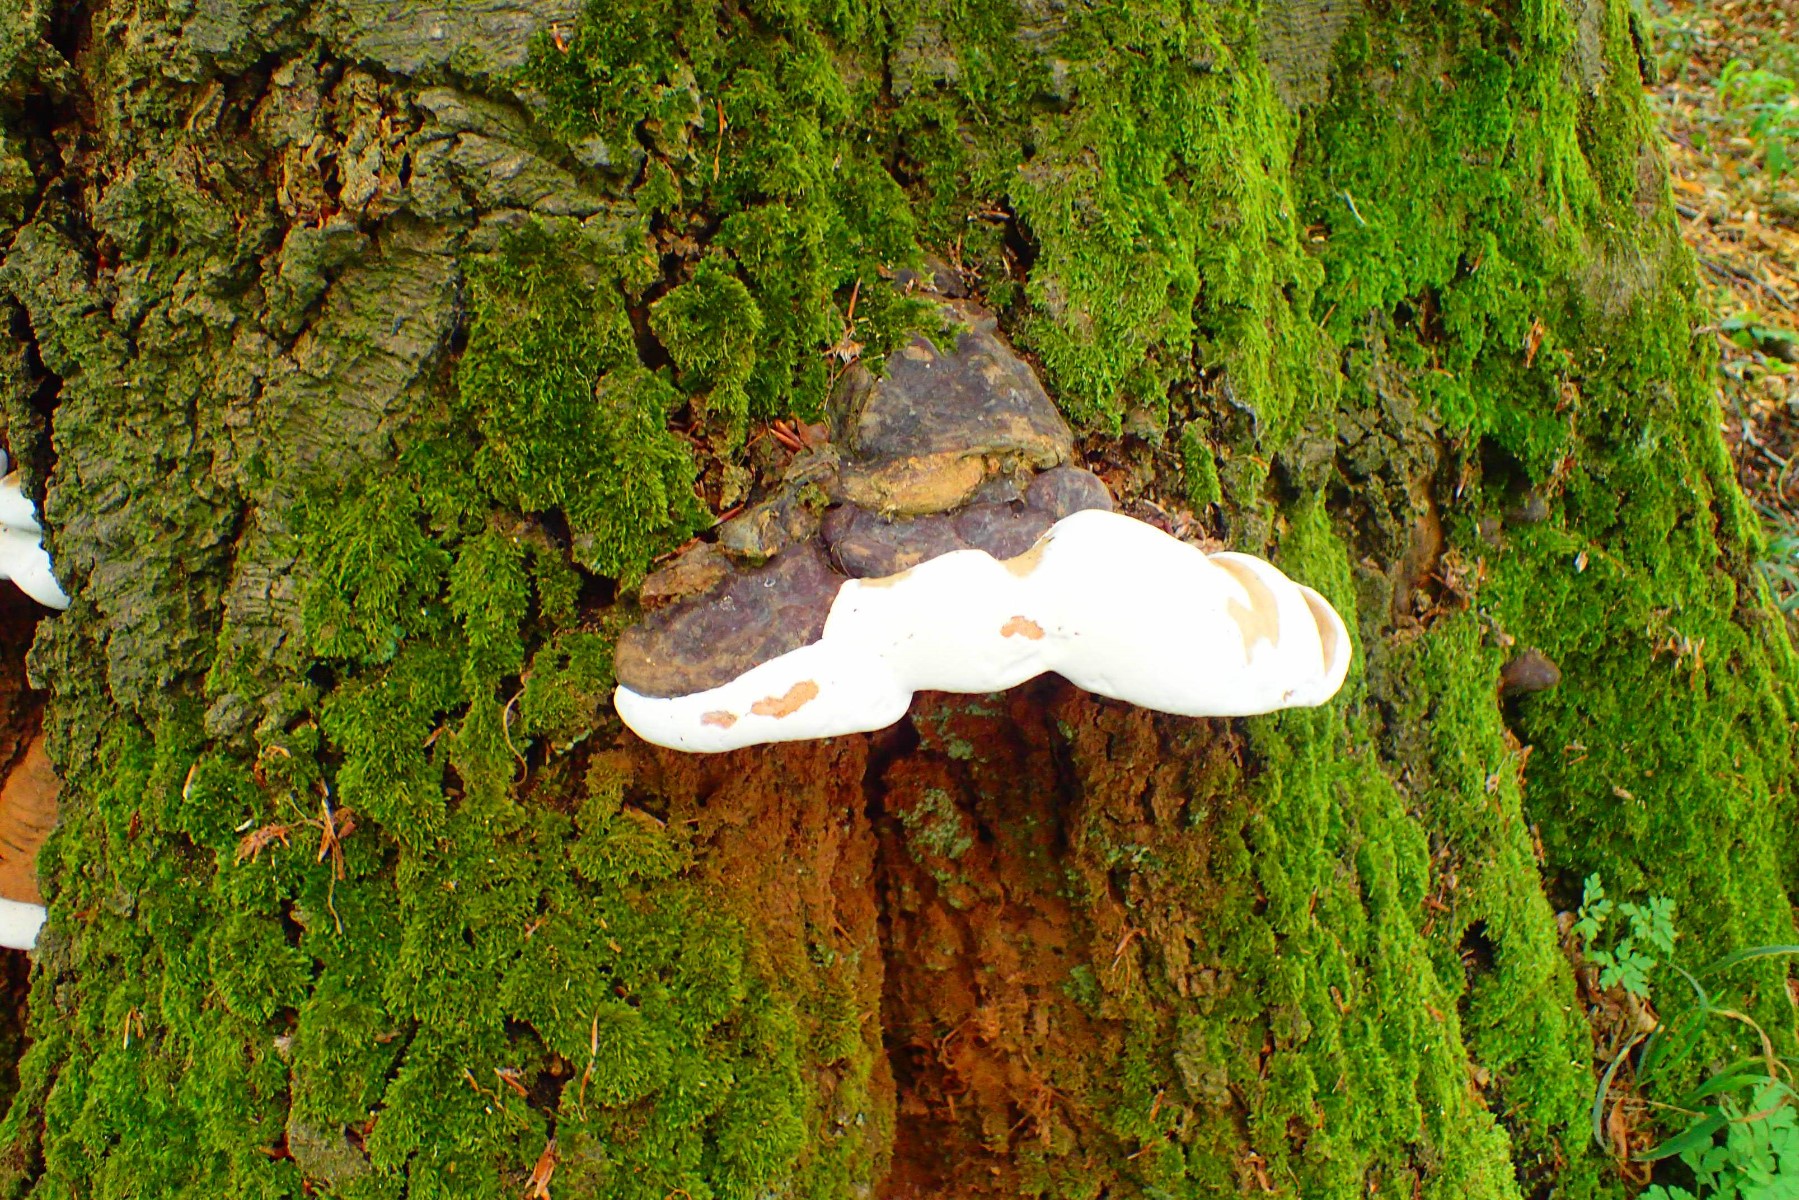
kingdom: Fungi
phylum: Basidiomycota
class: Agaricomycetes
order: Polyporales
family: Polyporaceae
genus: Ganoderma
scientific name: Ganoderma pfeifferi
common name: kobberrød lakporesvamp
